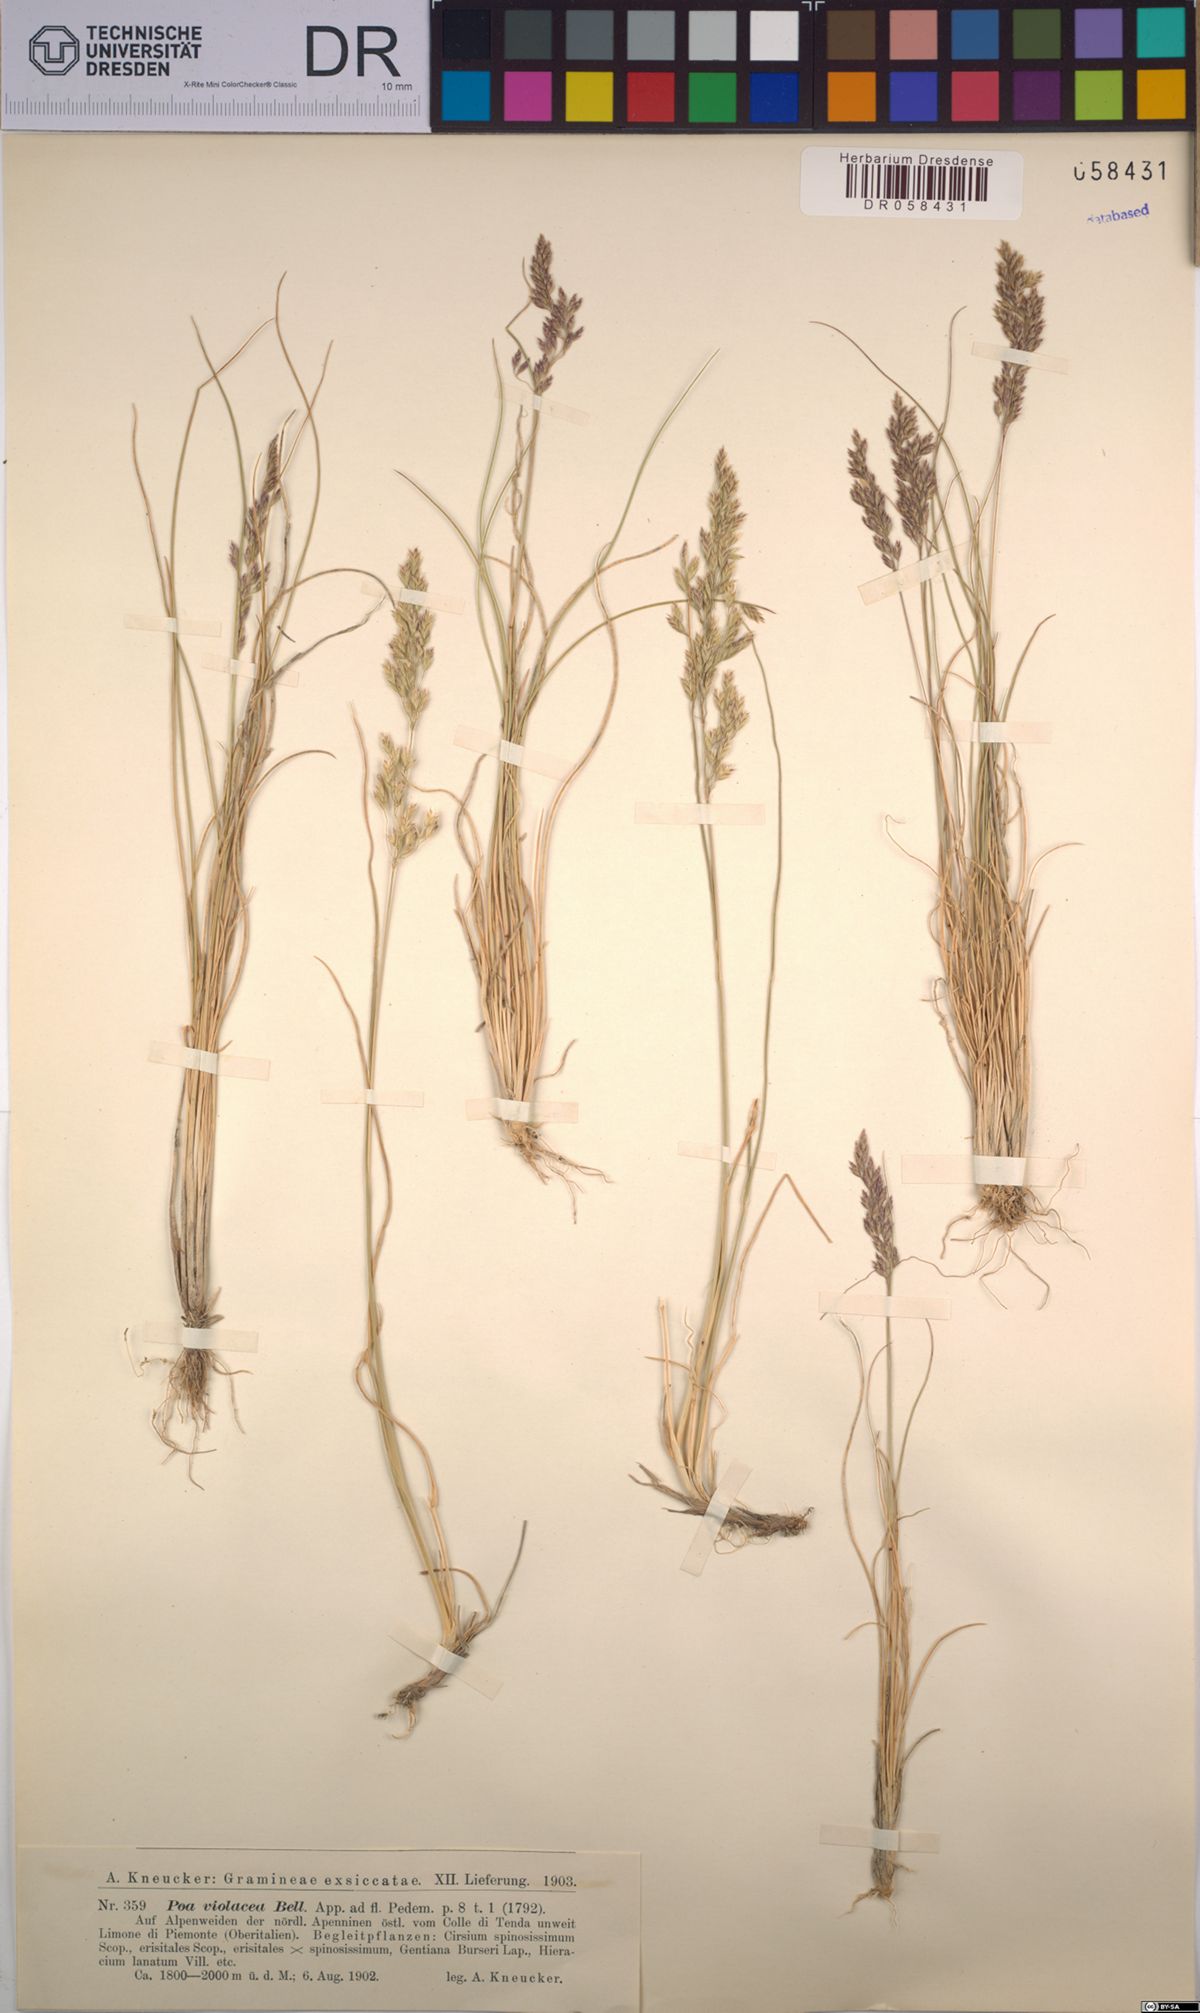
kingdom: Plantae
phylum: Tracheophyta
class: Liliopsida
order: Poales
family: Poaceae
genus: Bellardiochloa
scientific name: Bellardiochloa variegata
